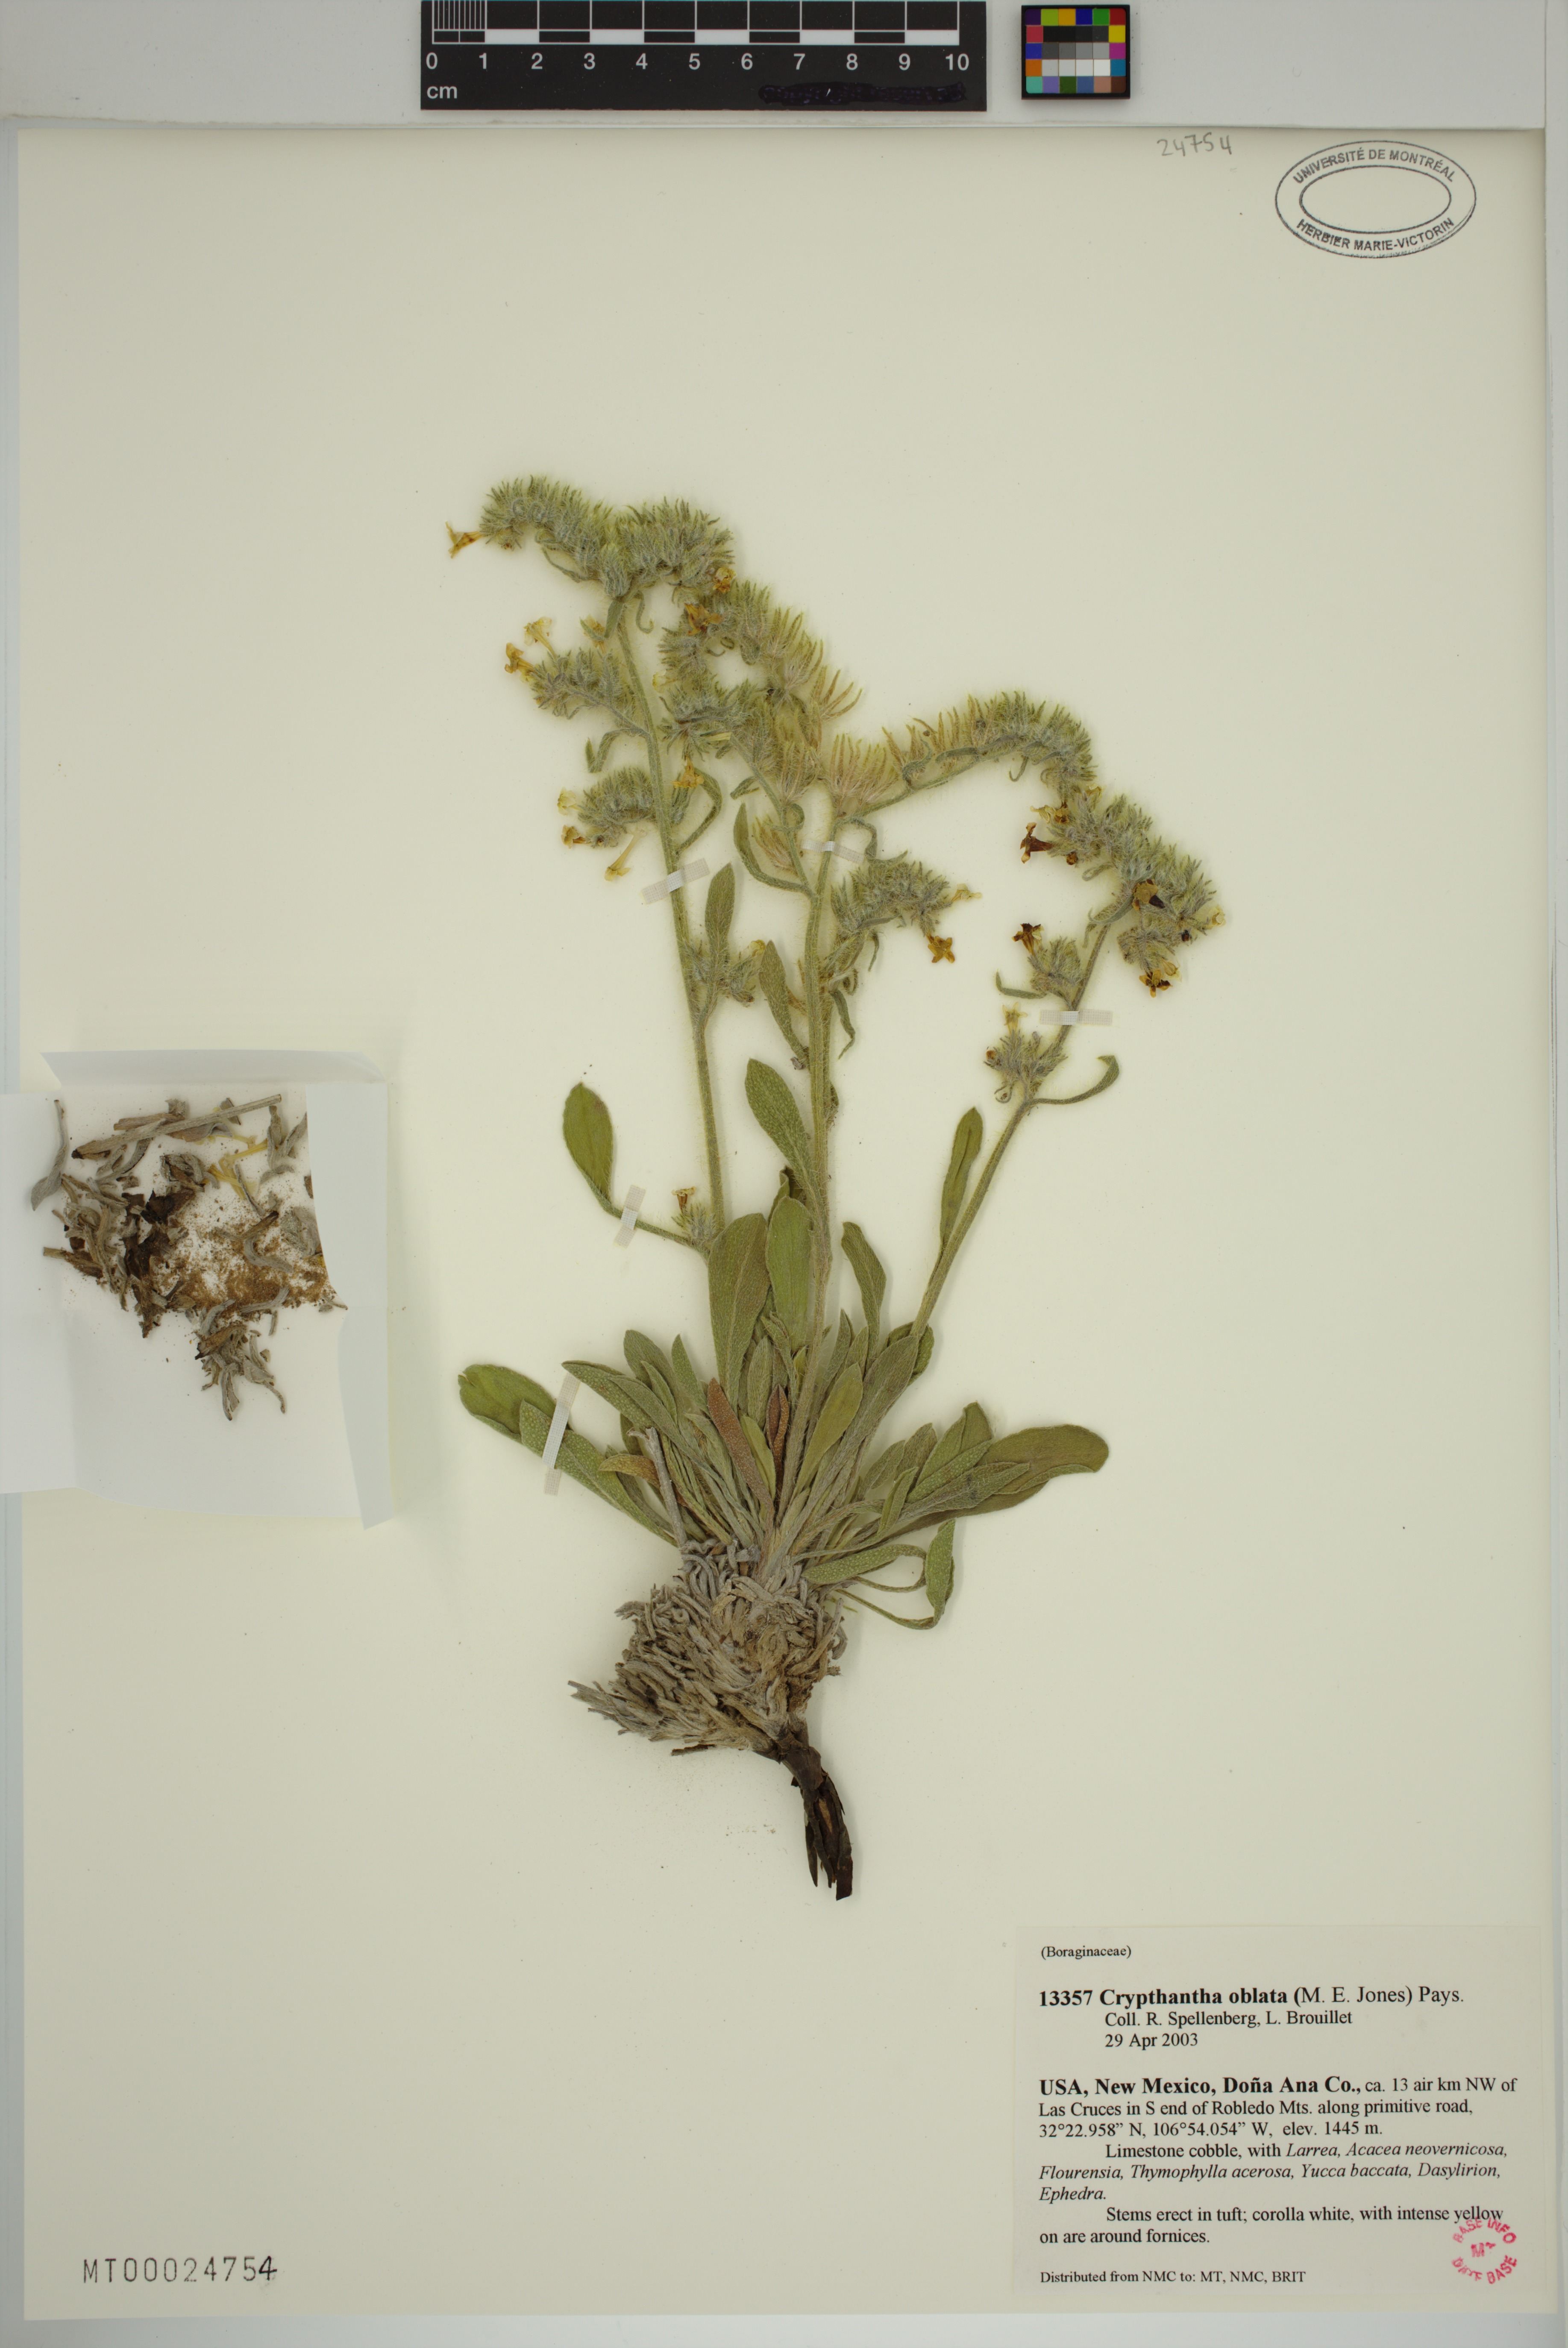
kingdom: Plantae
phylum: Tracheophyta
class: Magnoliopsida
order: Boraginales
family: Boraginaceae
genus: Oreocarya
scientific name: Oreocarya oblata
